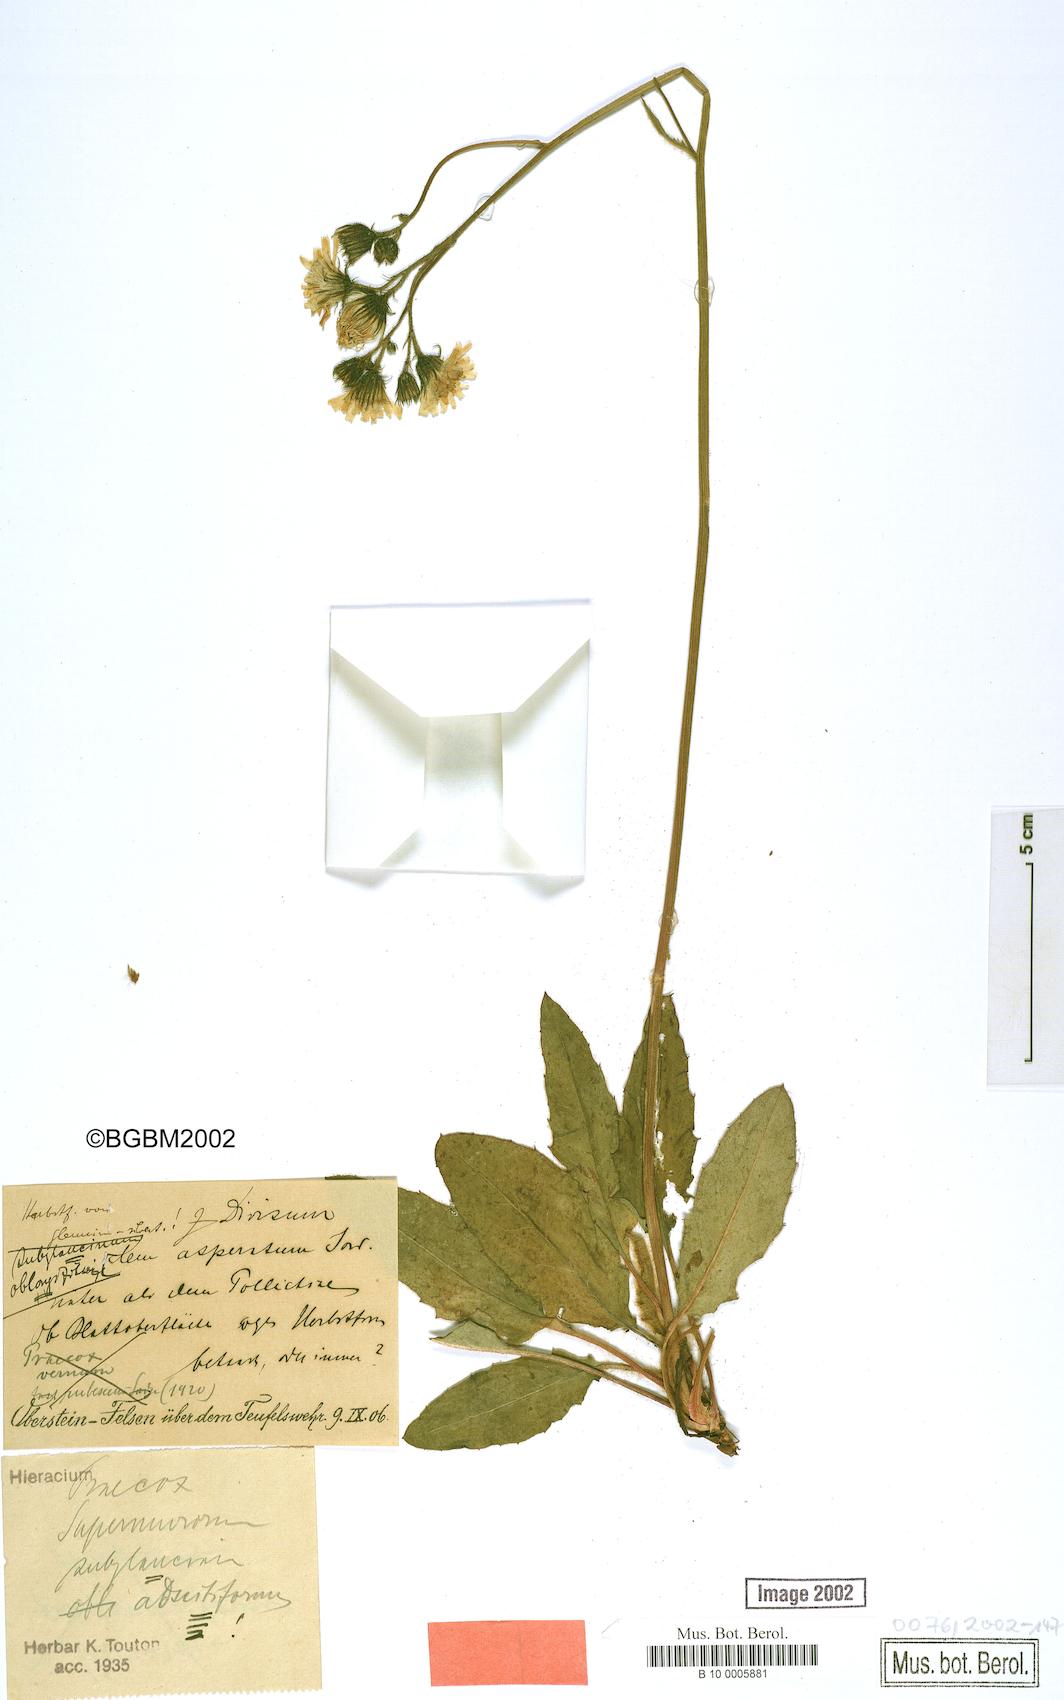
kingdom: Plantae
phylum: Tracheophyta
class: Magnoliopsida
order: Asterales
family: Asteraceae
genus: Hieracium
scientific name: Hieracium praecox
